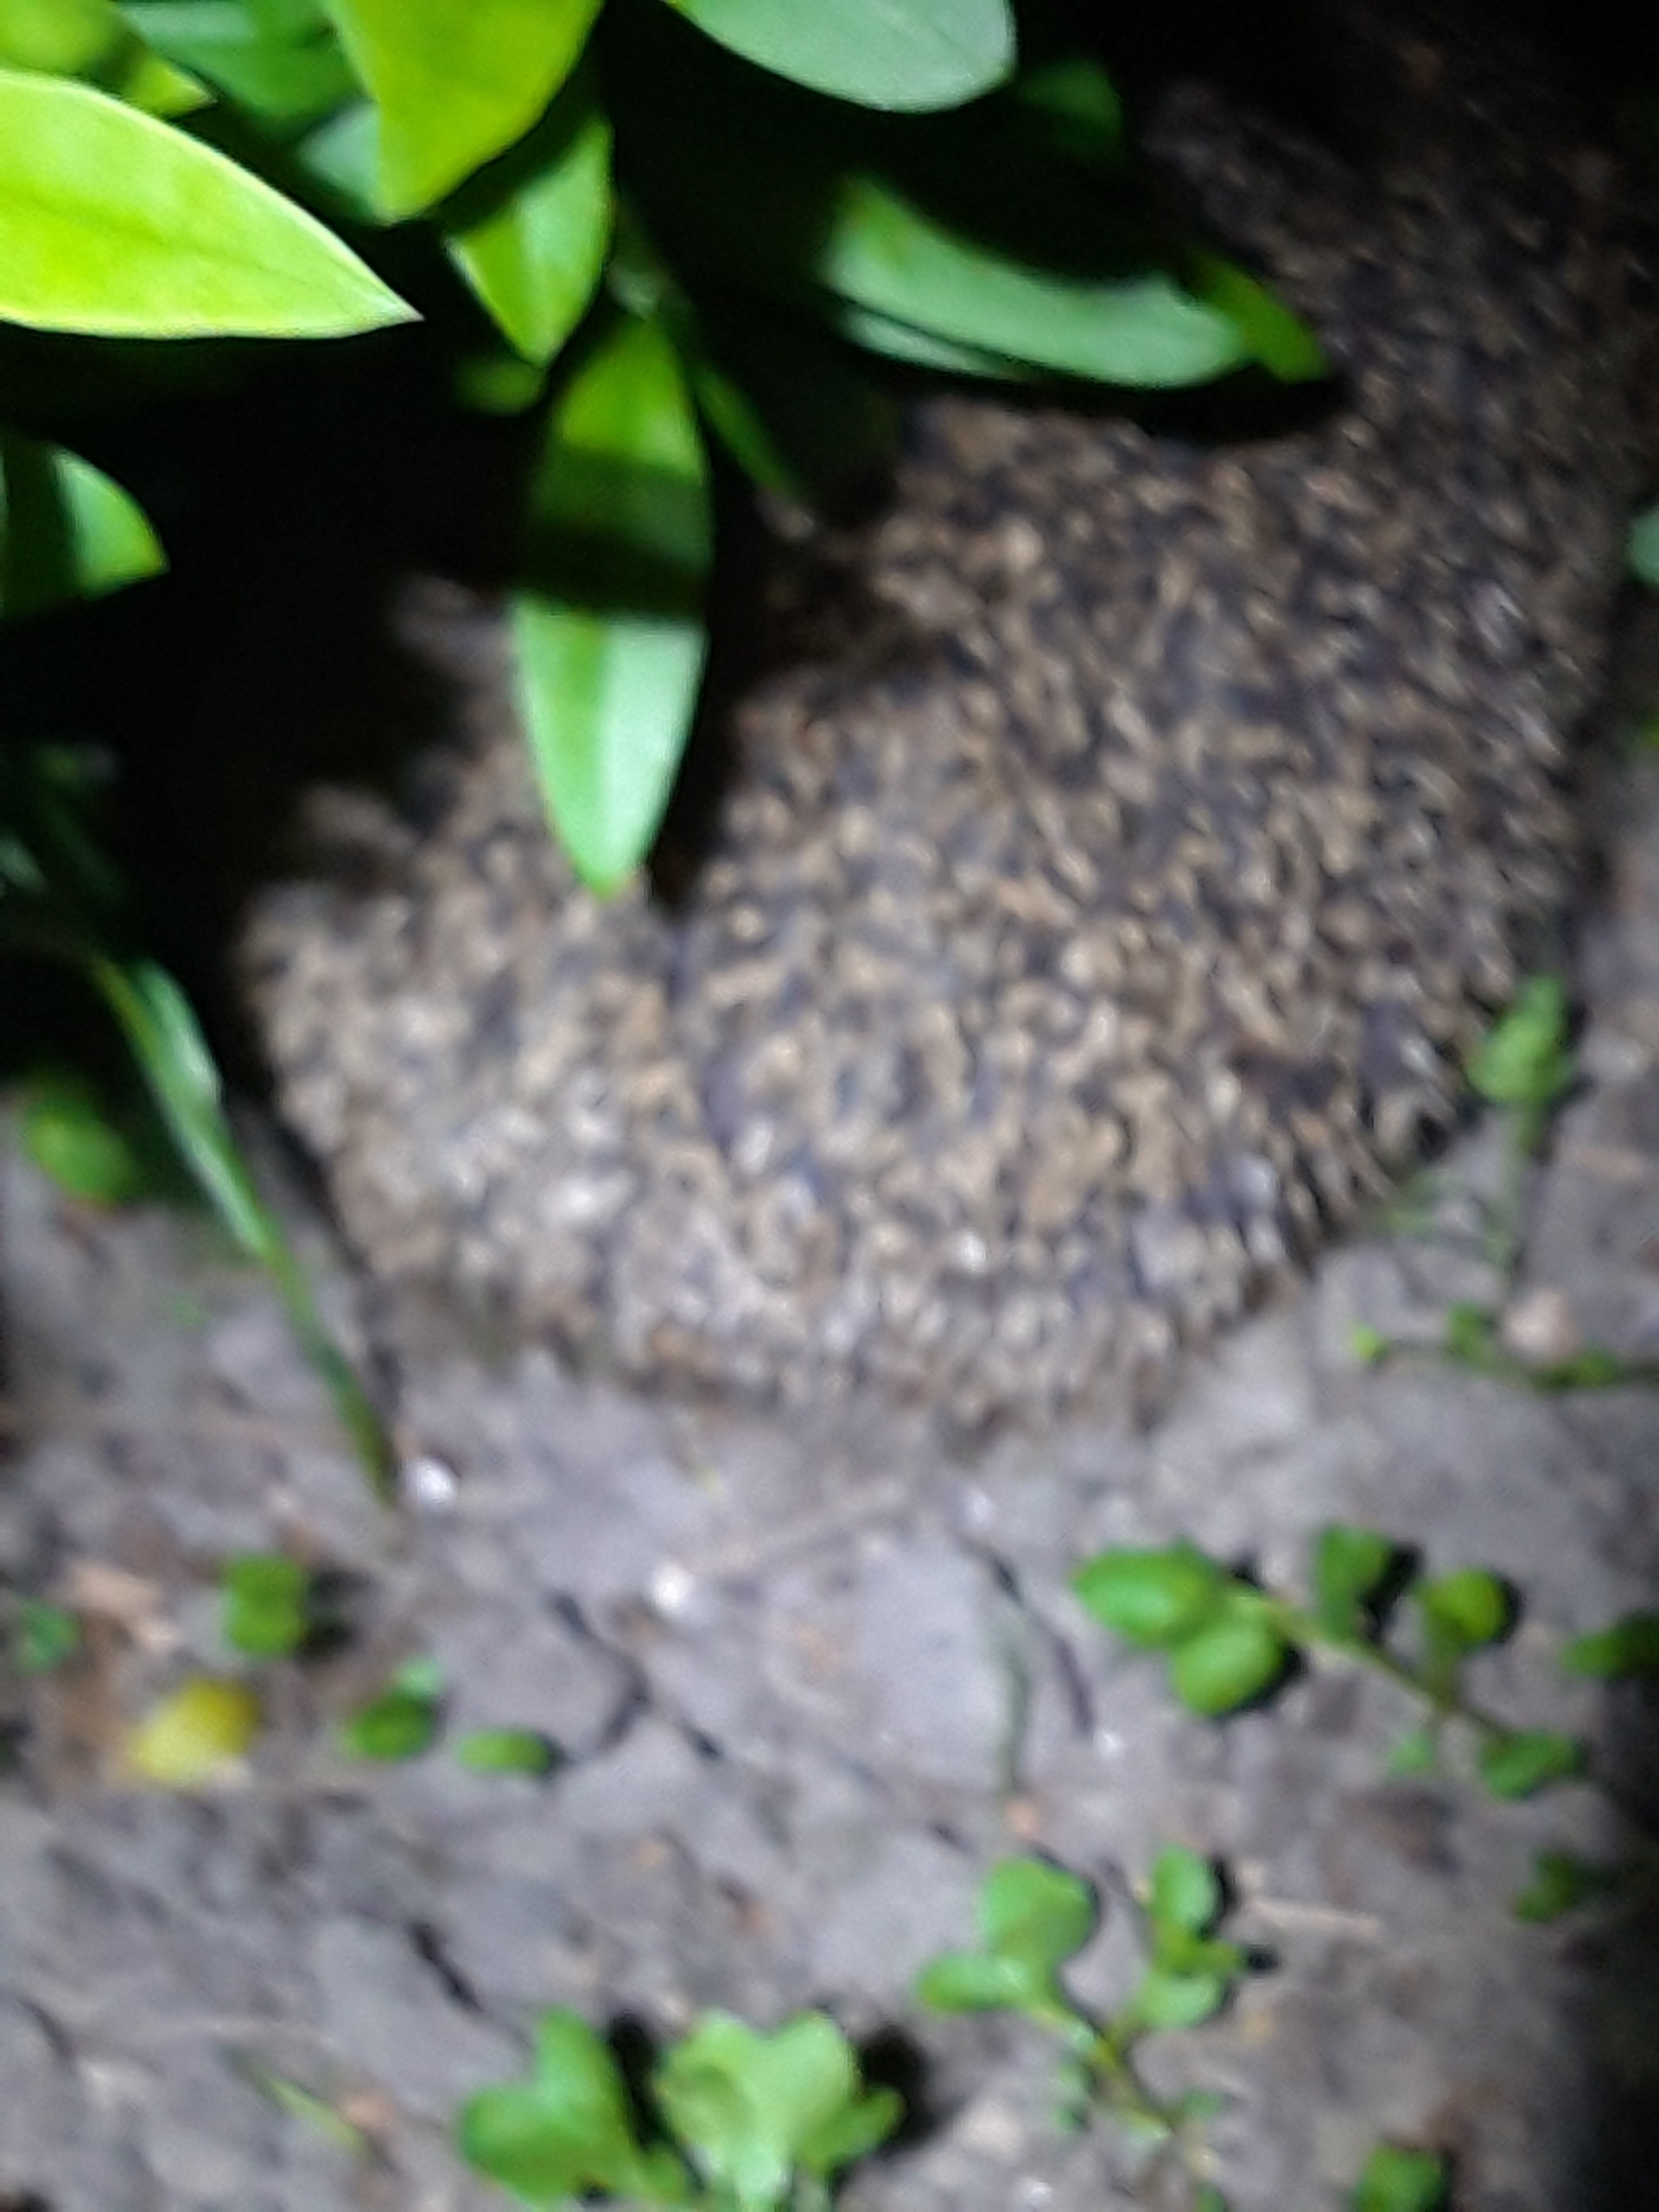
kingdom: Animalia
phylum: Chordata
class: Mammalia
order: Erinaceomorpha
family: Erinaceidae
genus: Erinaceus
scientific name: Erinaceus europaeus
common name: Pindsvin
